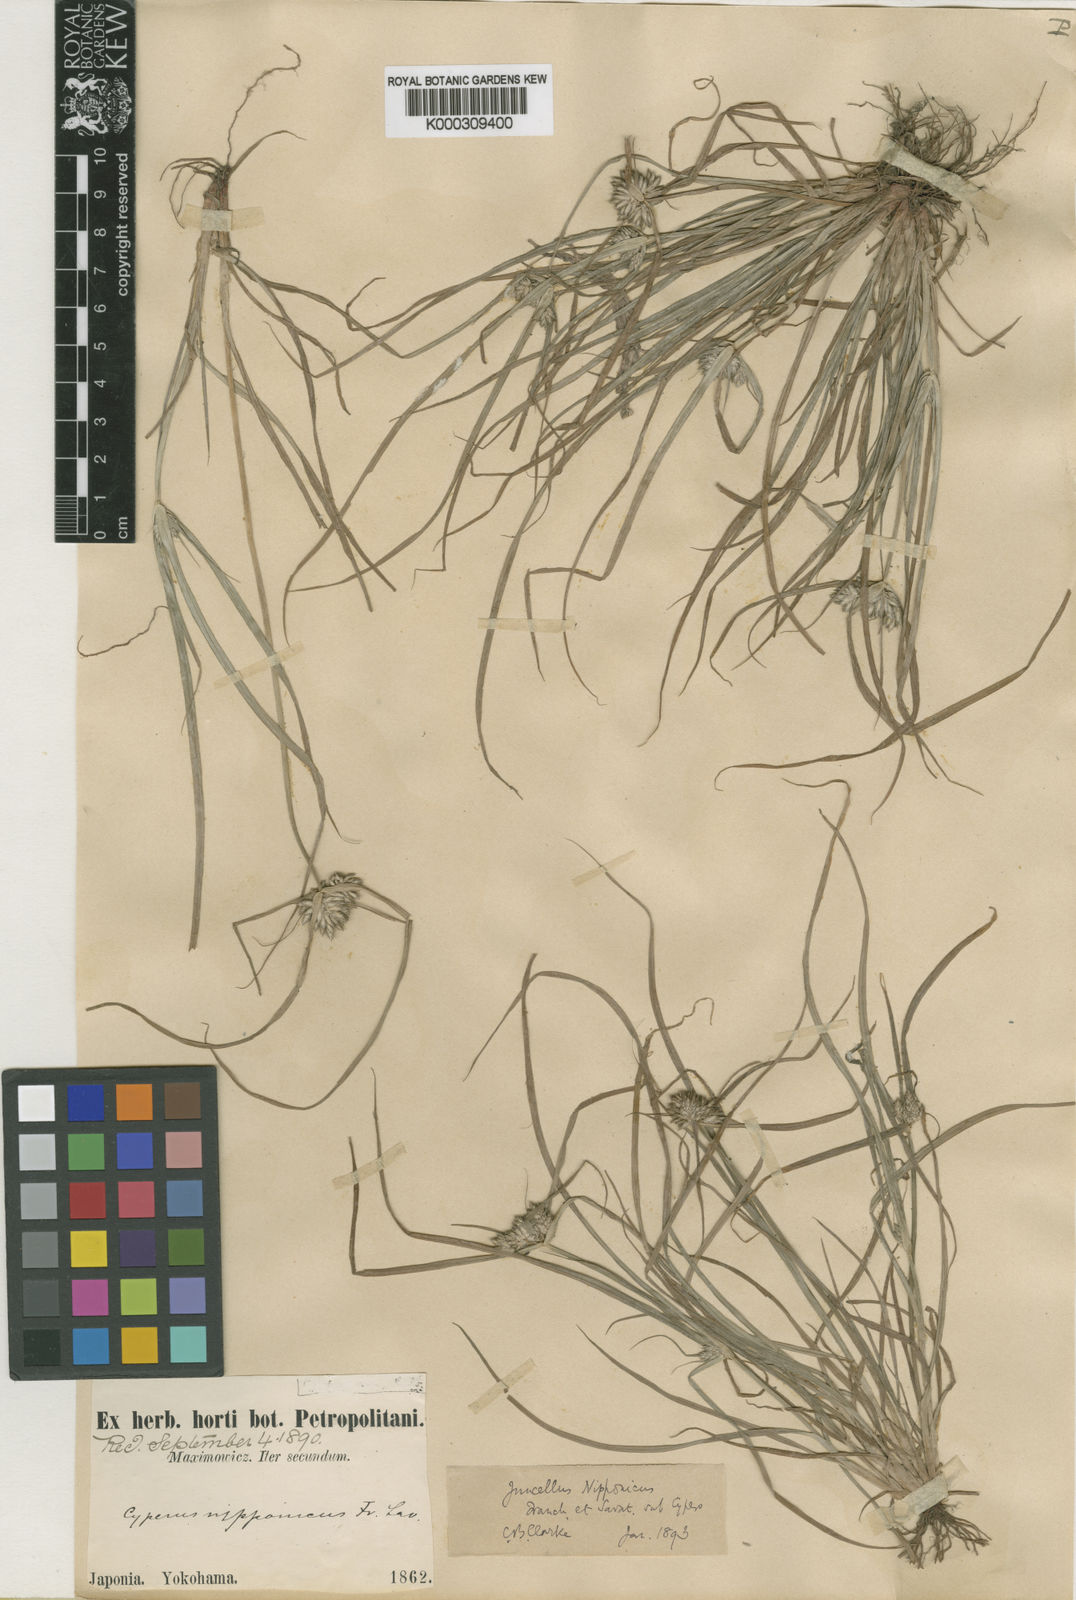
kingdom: Plantae
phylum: Tracheophyta
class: Liliopsida
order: Poales
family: Cyperaceae
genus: Cyperus
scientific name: Cyperus nipponicus
